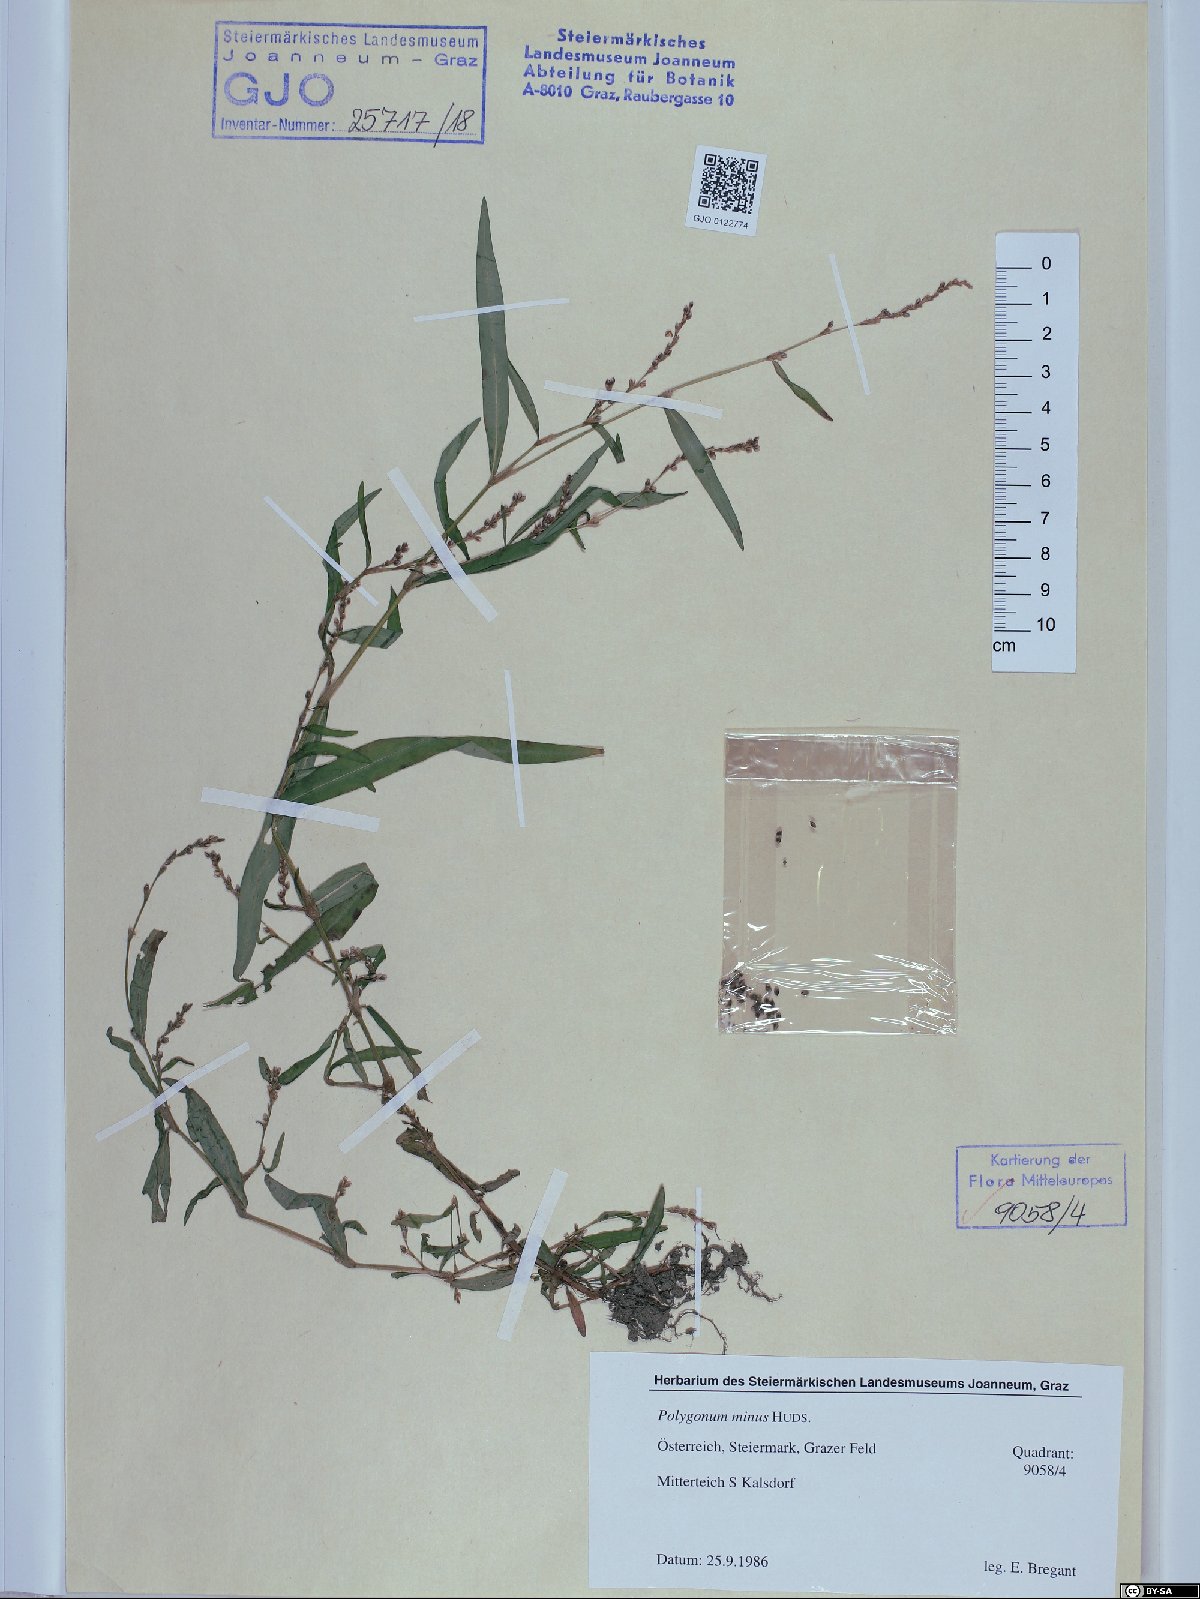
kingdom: Plantae
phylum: Tracheophyta
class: Magnoliopsida
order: Caryophyllales
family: Polygonaceae
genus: Persicaria
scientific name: Persicaria minor
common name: Small water-pepper
